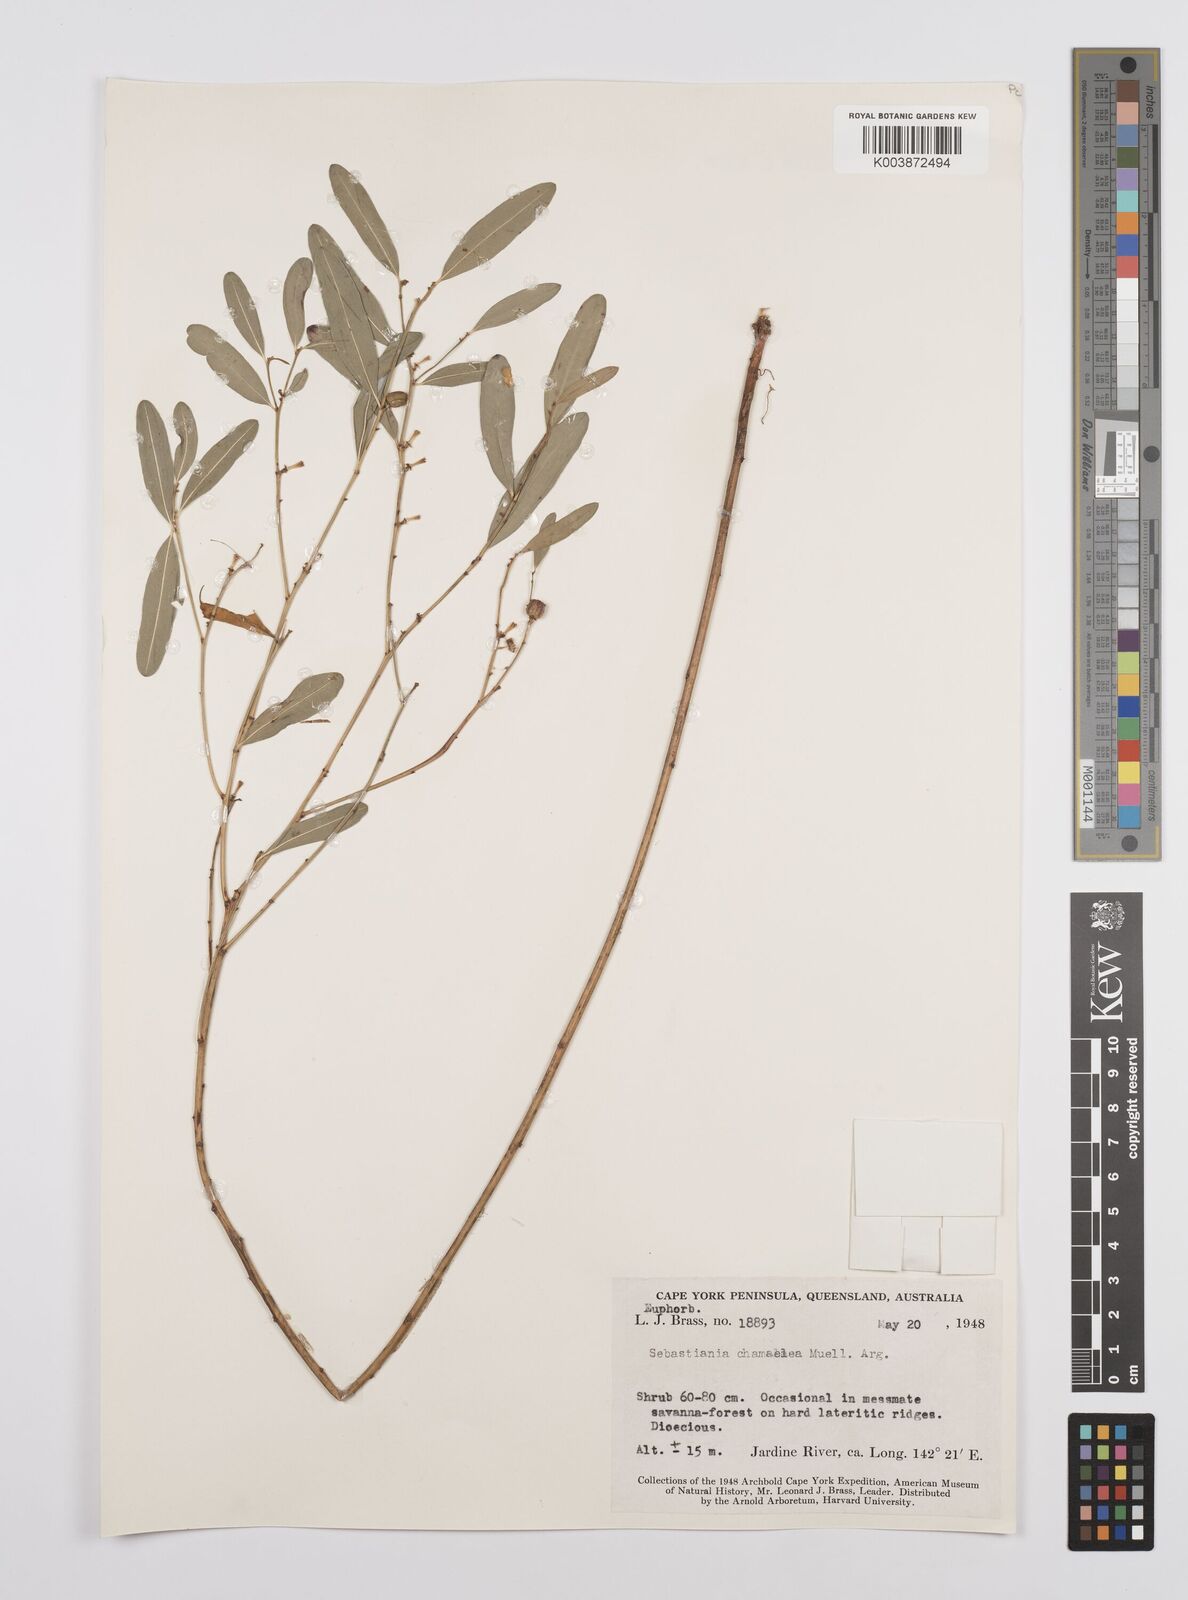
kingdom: Plantae
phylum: Tracheophyta
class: Magnoliopsida
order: Malpighiales
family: Euphorbiaceae
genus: Microstachys
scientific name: Microstachys chamaelea
